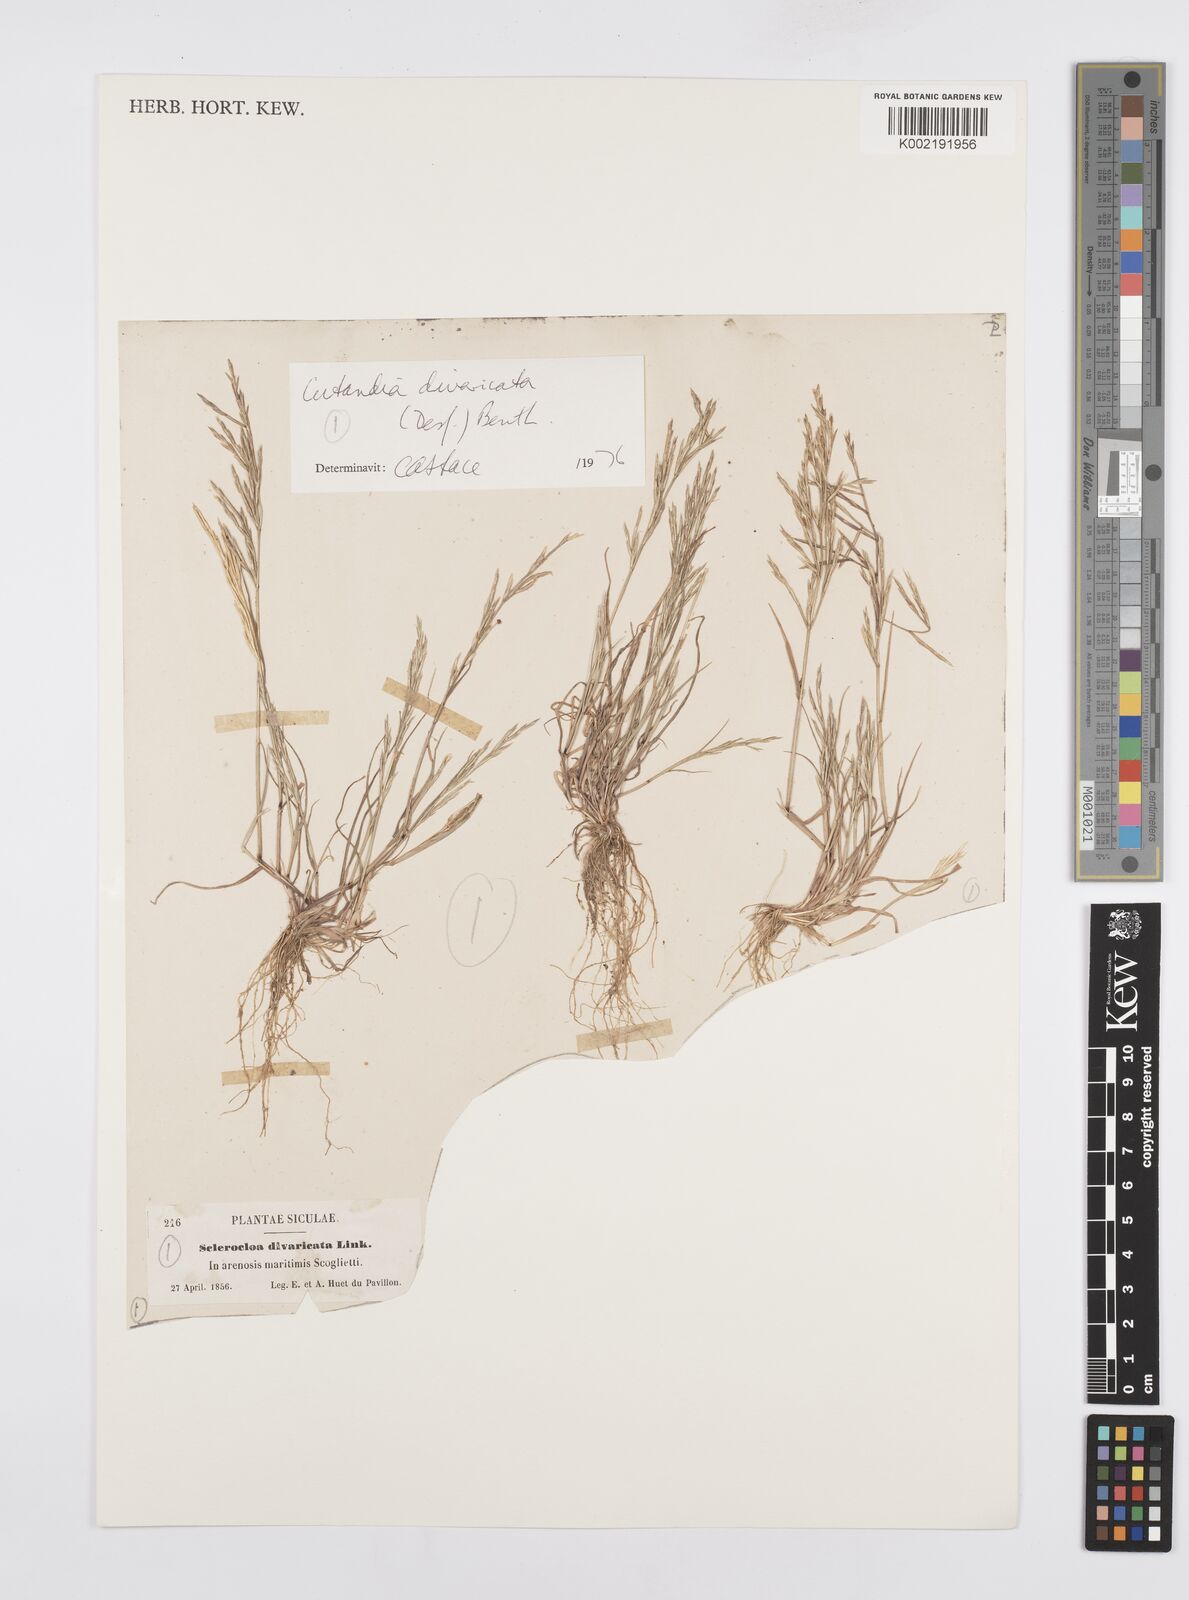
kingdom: Plantae
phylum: Tracheophyta
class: Liliopsida
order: Poales
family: Poaceae
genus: Cutandia
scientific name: Cutandia divaricata
